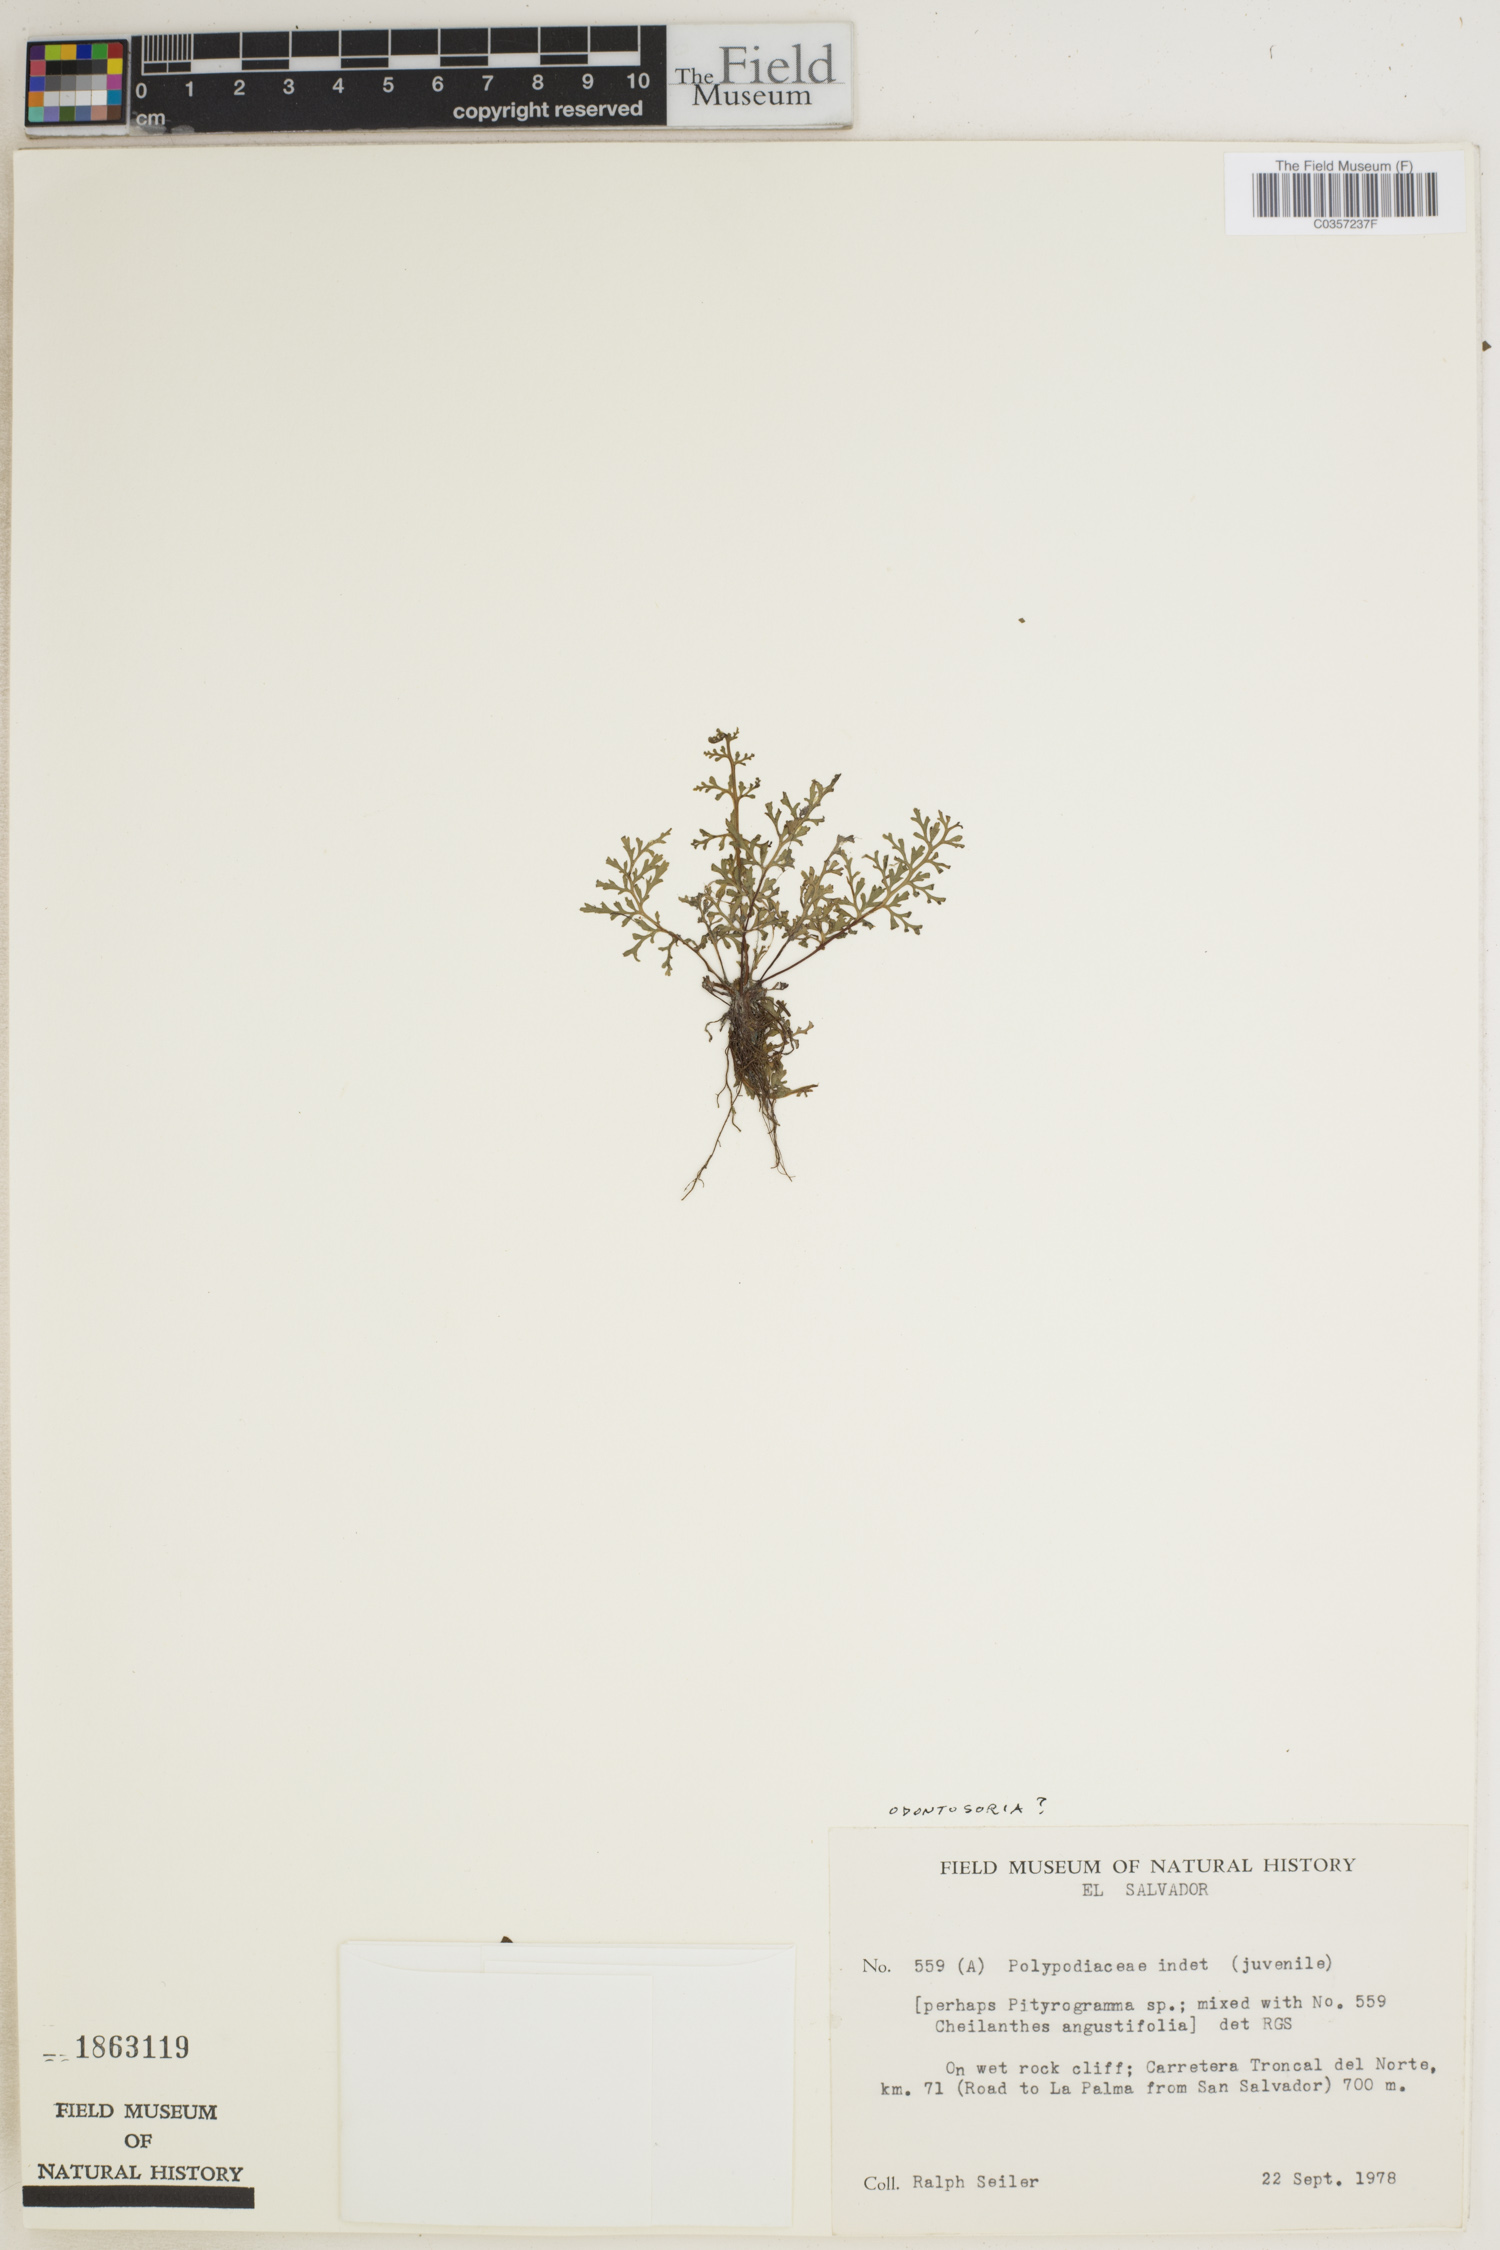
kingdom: Plantae
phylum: Tracheophyta
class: Polypodiopsida
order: Polypodiales
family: Lindsaeaceae
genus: Odontosoria
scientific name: Odontosoria
